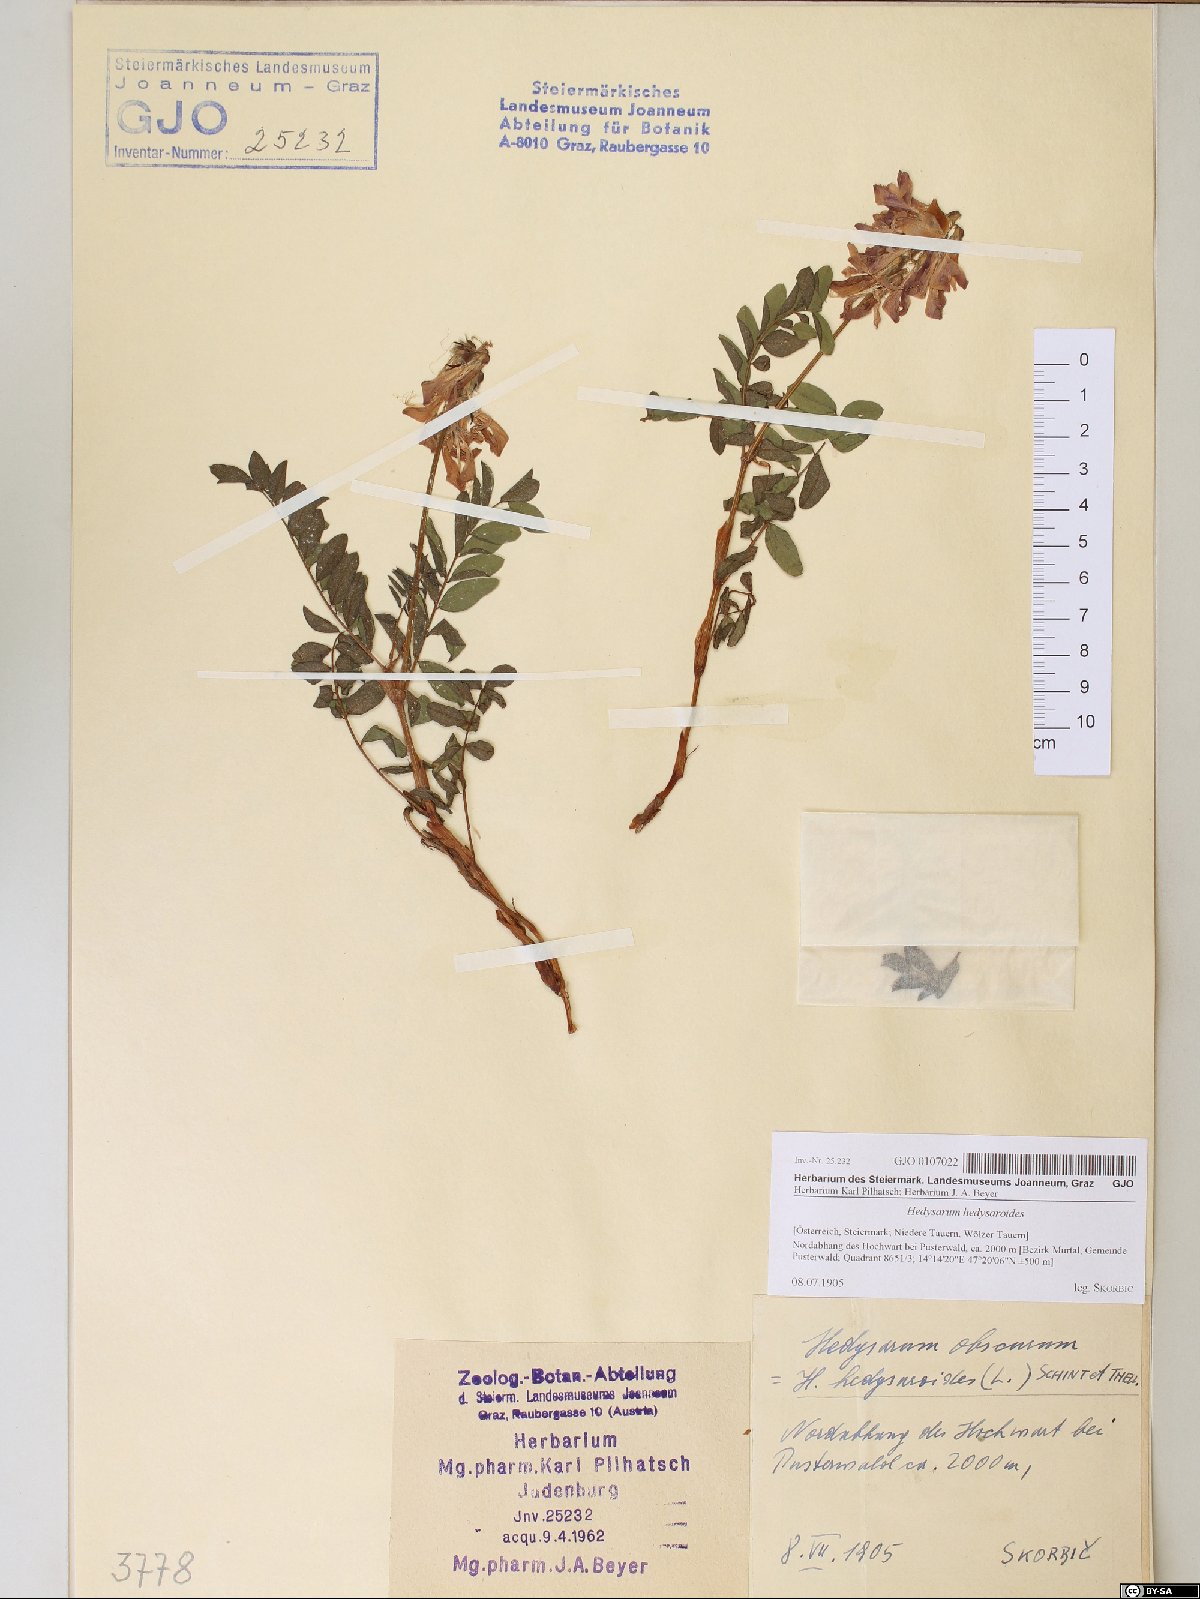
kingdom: Plantae
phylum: Tracheophyta
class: Magnoliopsida
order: Fabales
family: Fabaceae
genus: Hedysarum
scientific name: Hedysarum hedysaroides
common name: Alpine french-honeysuckle
